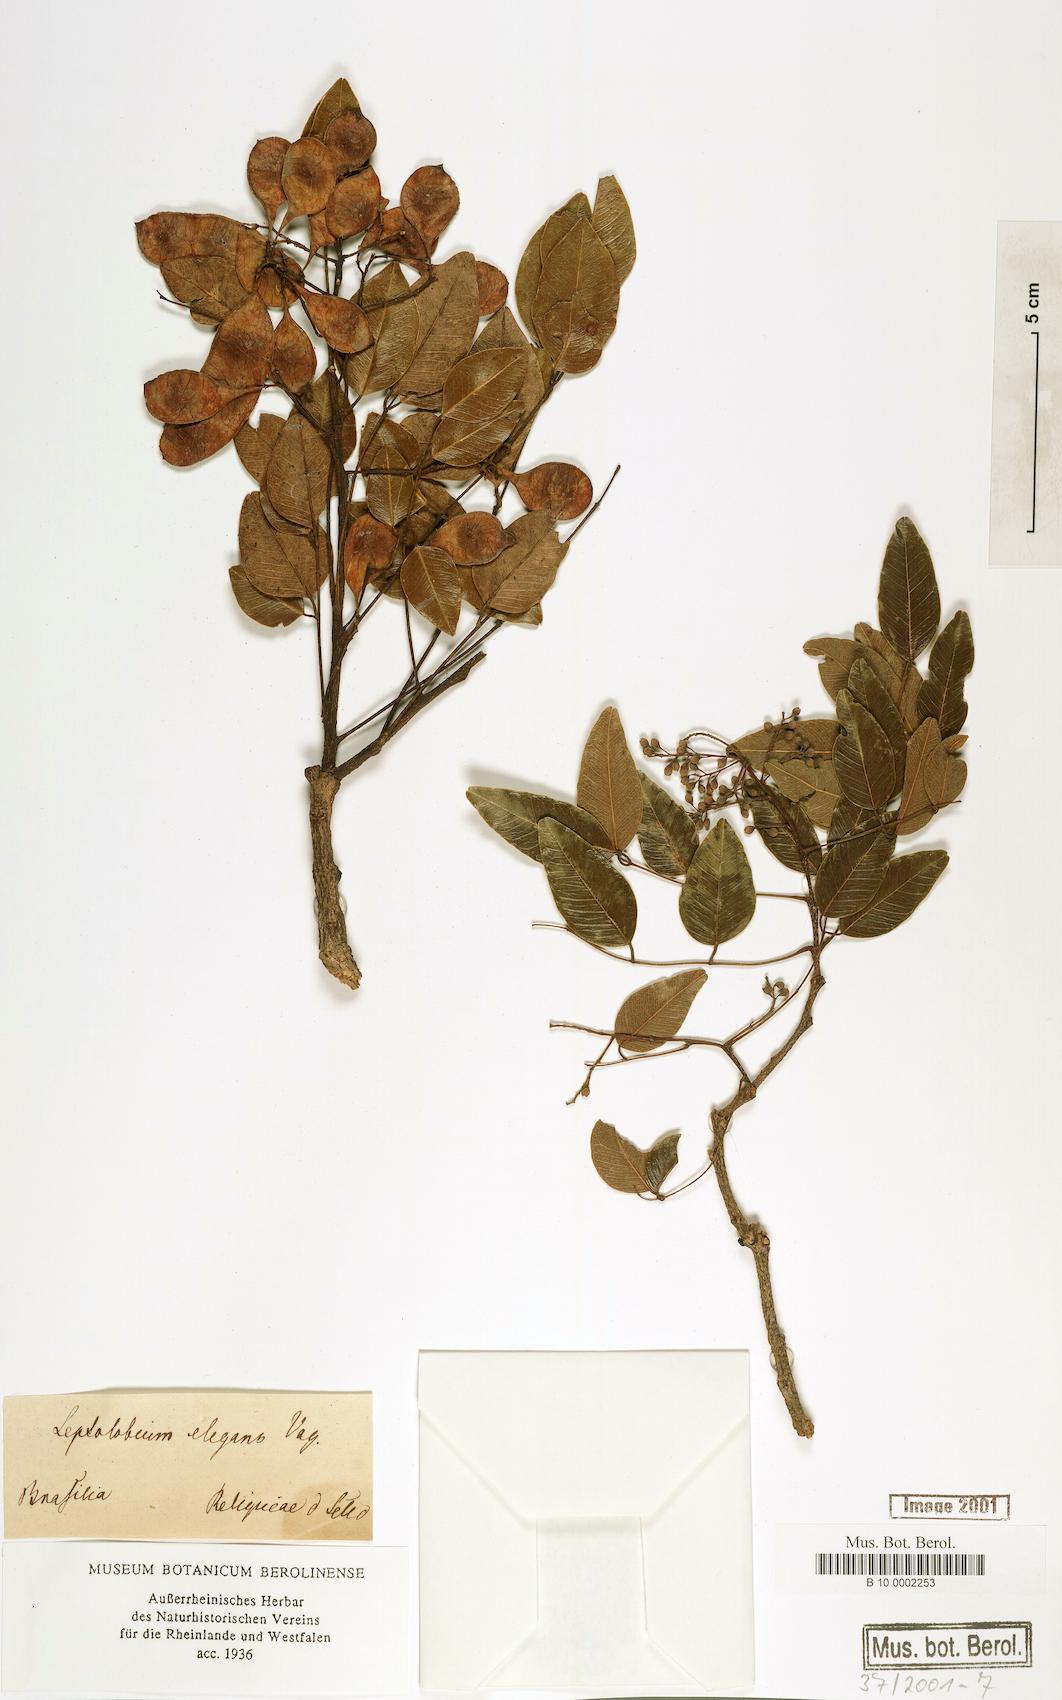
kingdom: Plantae
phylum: Tracheophyta
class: Magnoliopsida
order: Fabales
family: Fabaceae
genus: Leptolobium
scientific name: Leptolobium elegans
